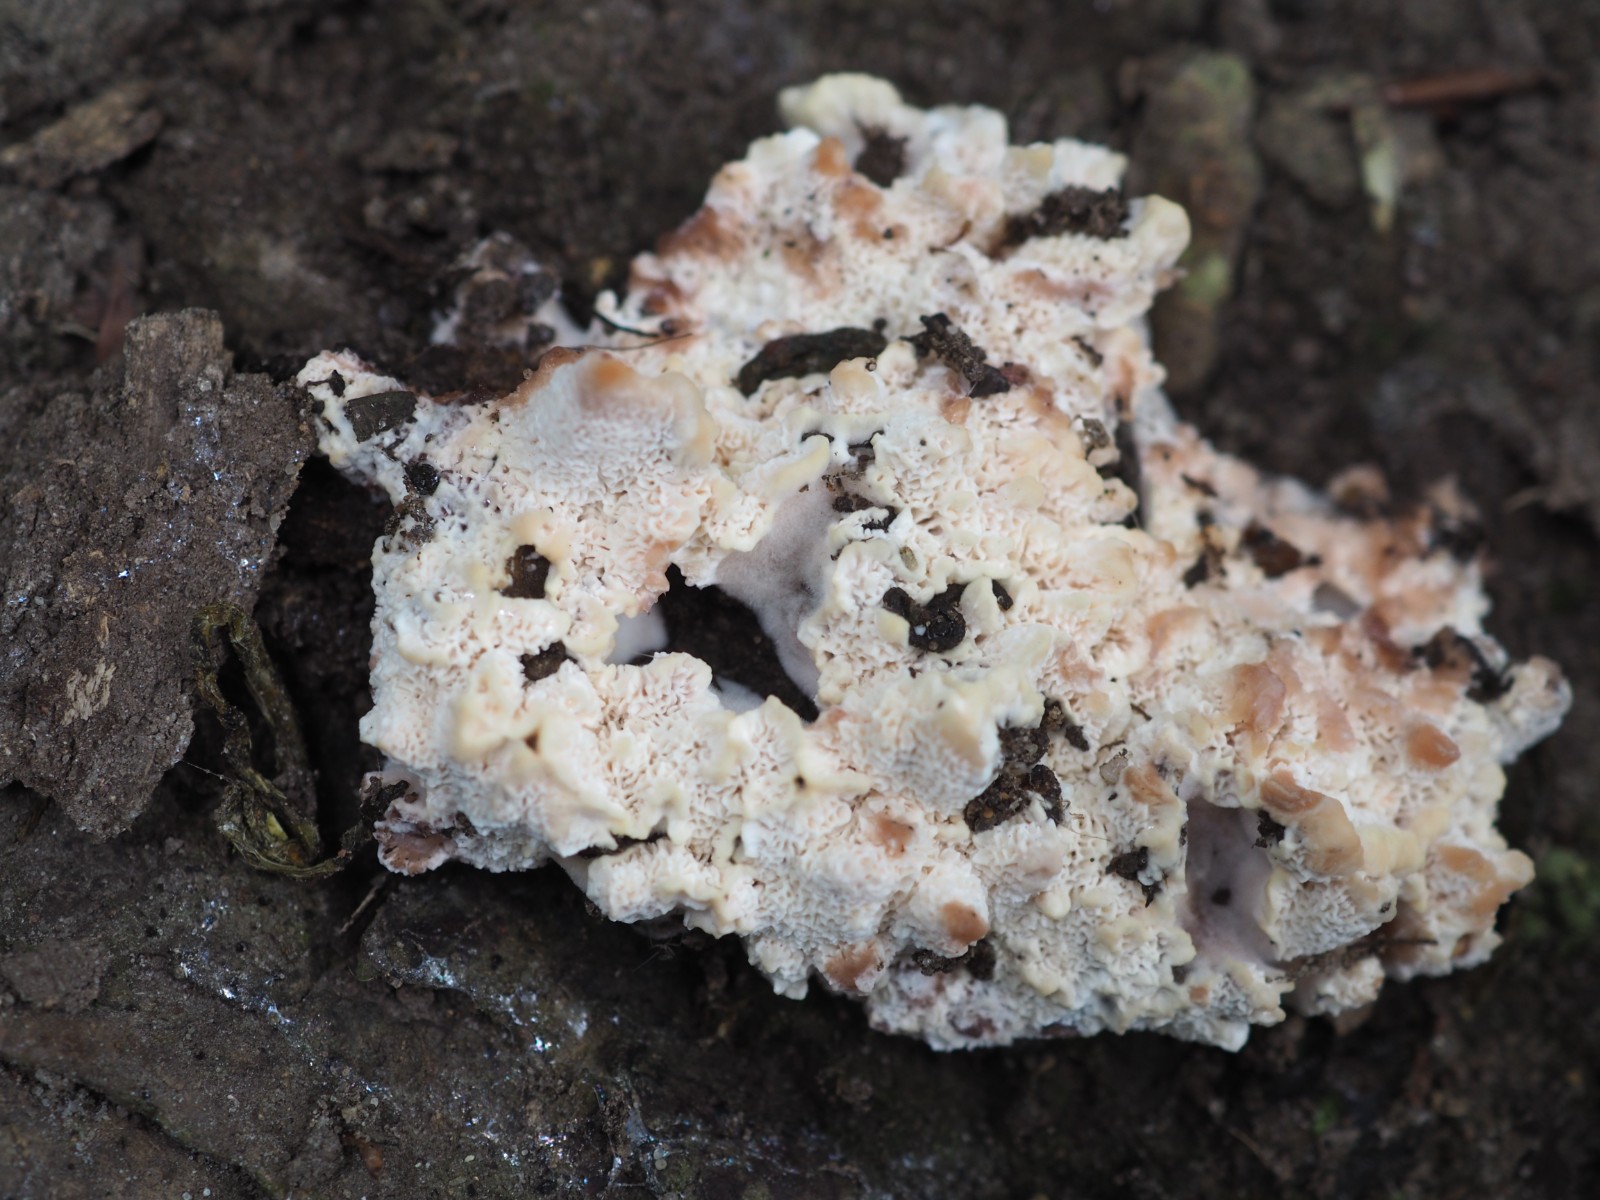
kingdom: Fungi
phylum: Basidiomycota
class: Agaricomycetes
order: Polyporales
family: Meripilaceae
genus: Rigidoporus
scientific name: Rigidoporus sanguinolentus
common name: blod-skorpeporesvamp
